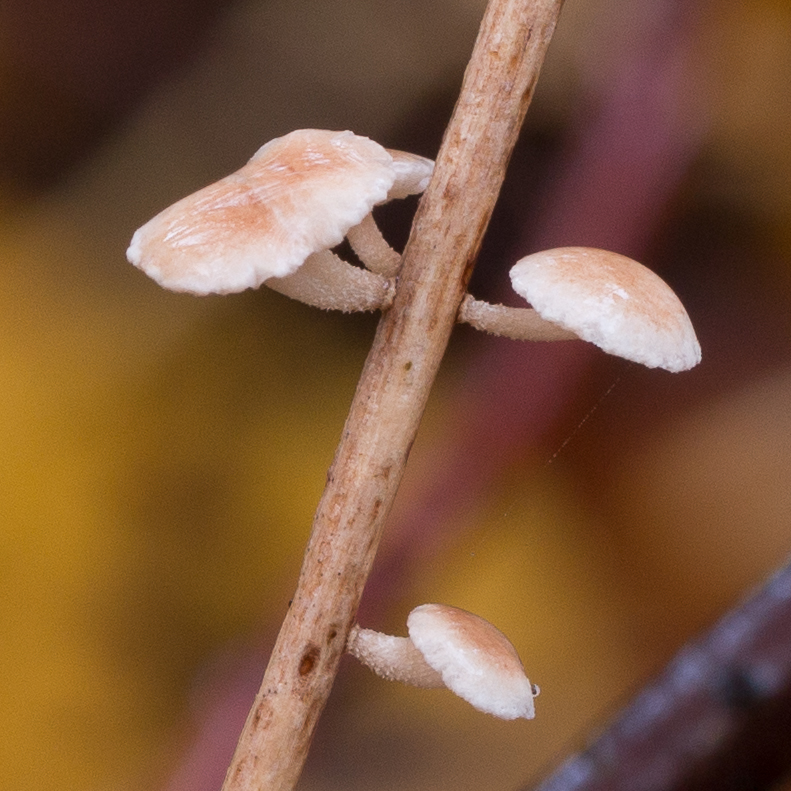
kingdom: Fungi
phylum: Basidiomycota
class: Agaricomycetes
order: Agaricales
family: Omphalotaceae
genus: Collybiopsis
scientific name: Collybiopsis ramealis
